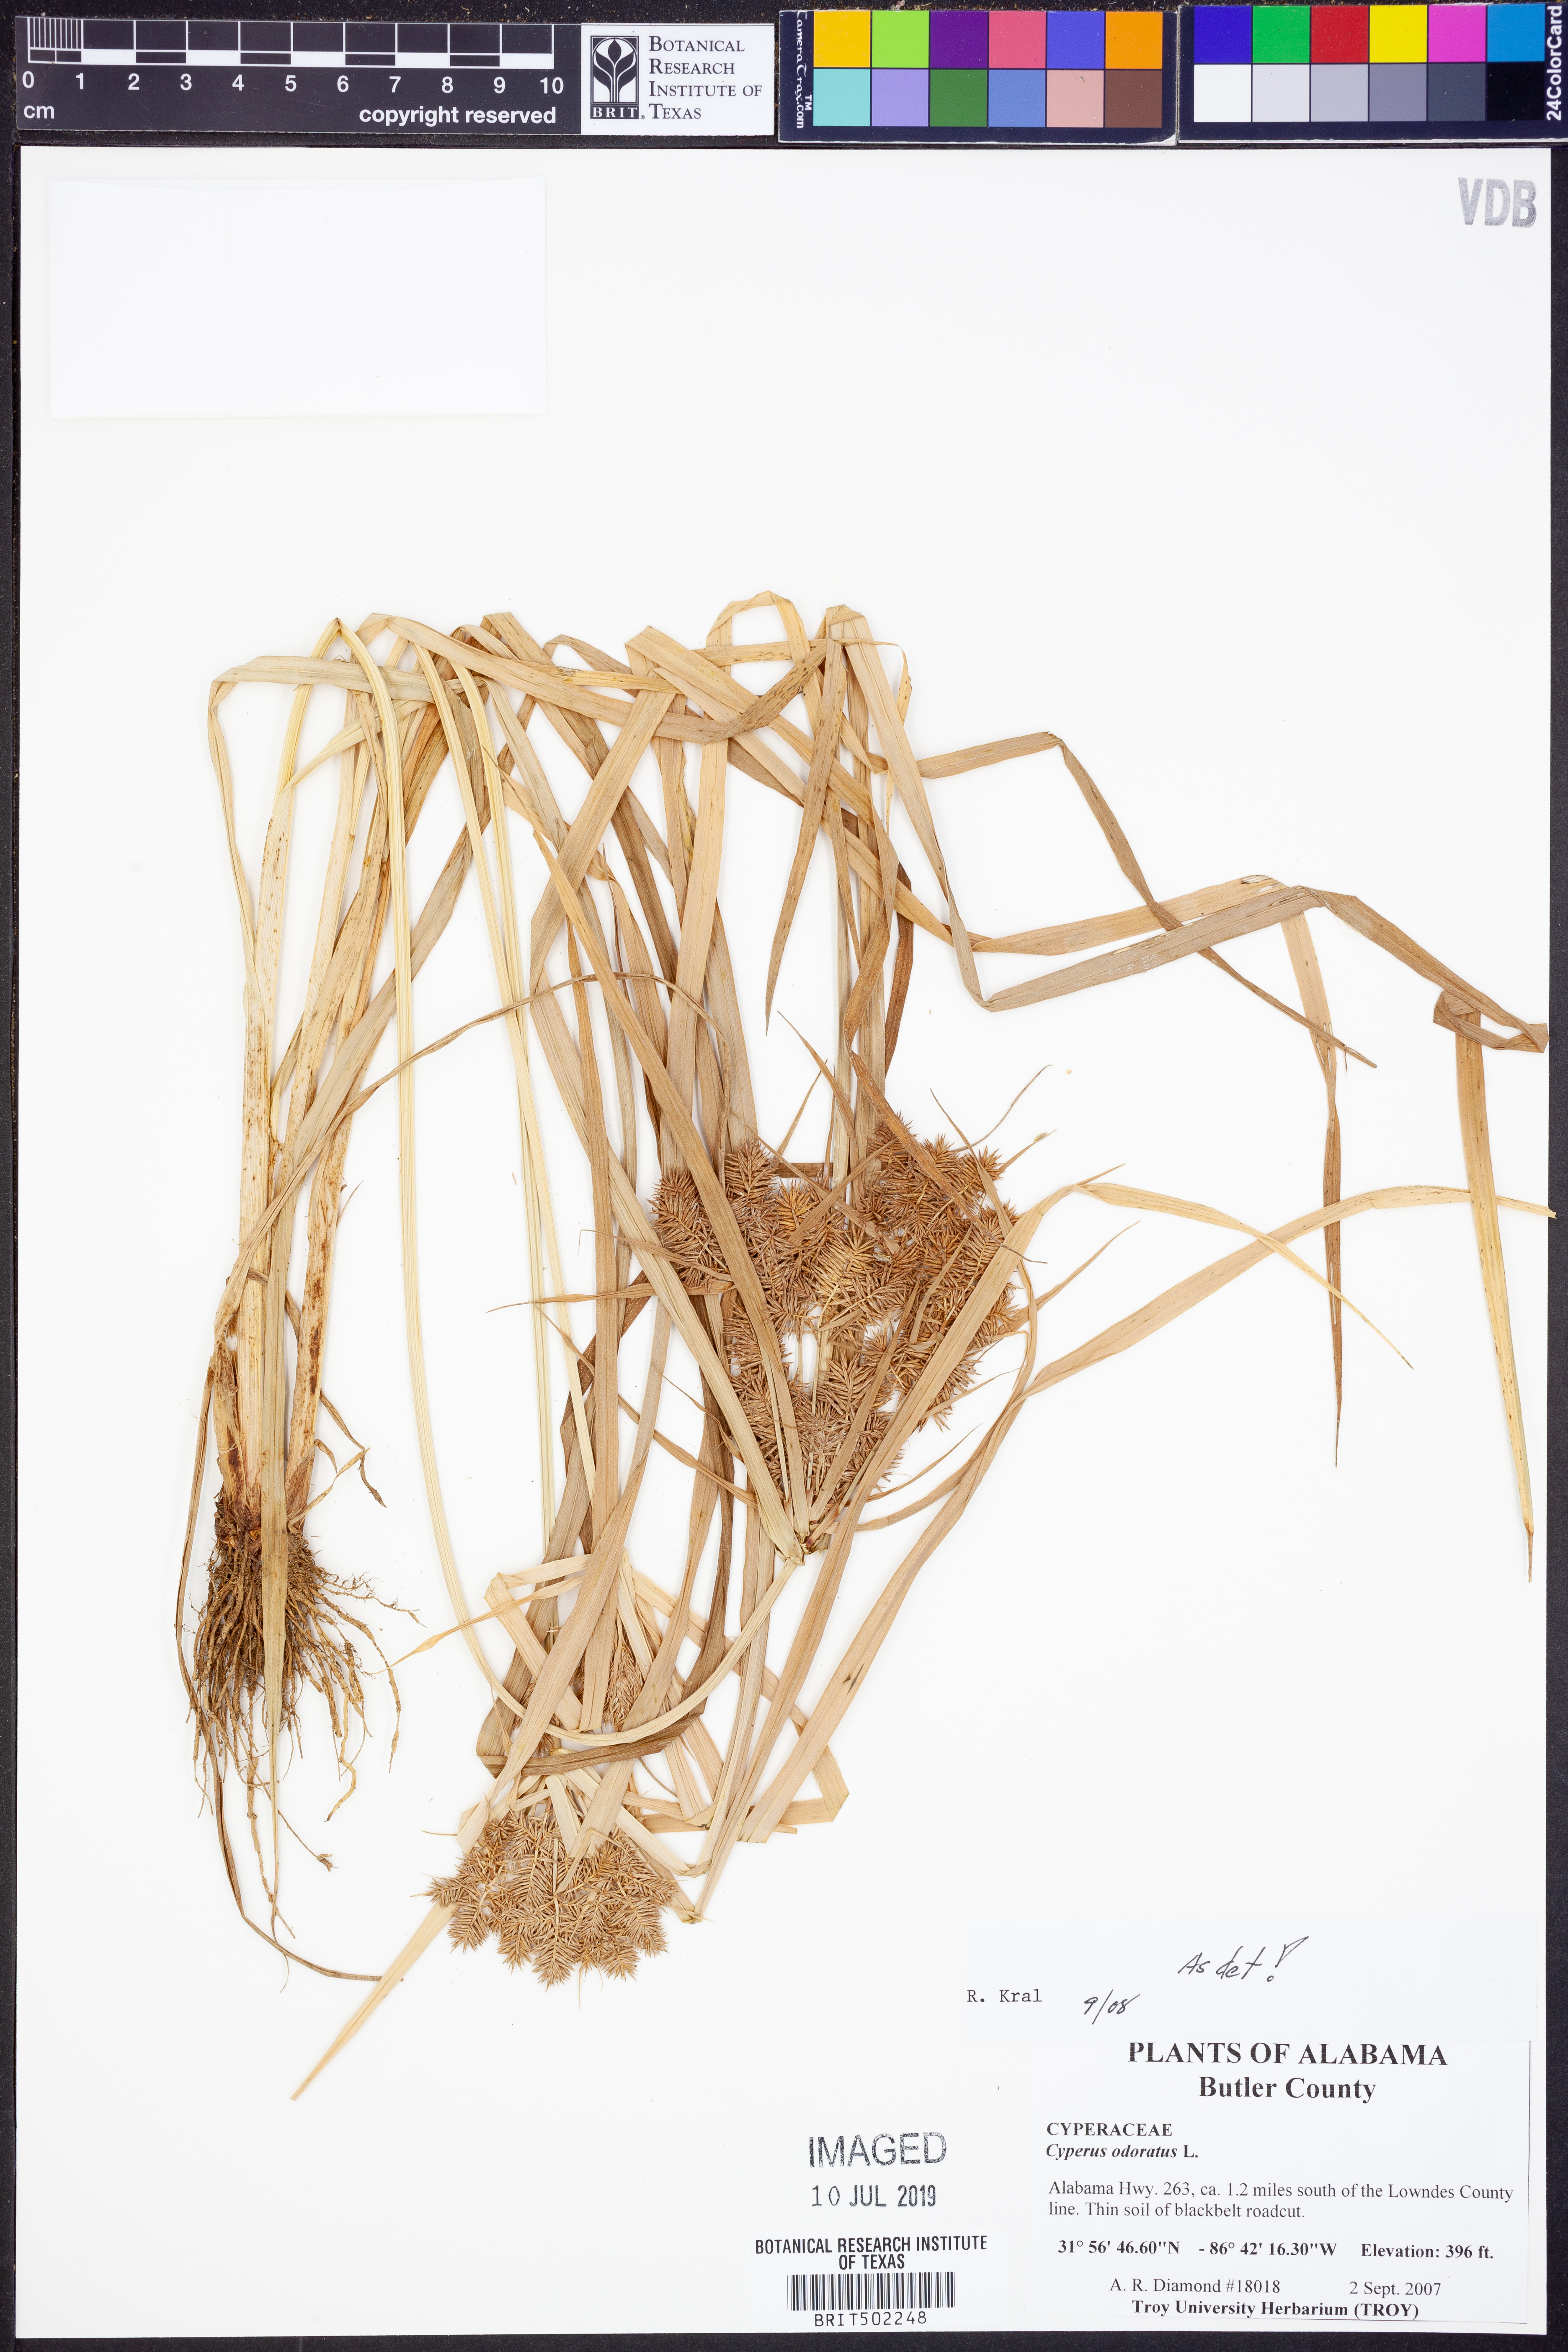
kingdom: Plantae
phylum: Tracheophyta
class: Liliopsida
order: Poales
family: Cyperaceae
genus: Cyperus
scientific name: Cyperus odoratus
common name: Fragrant flatsedge
